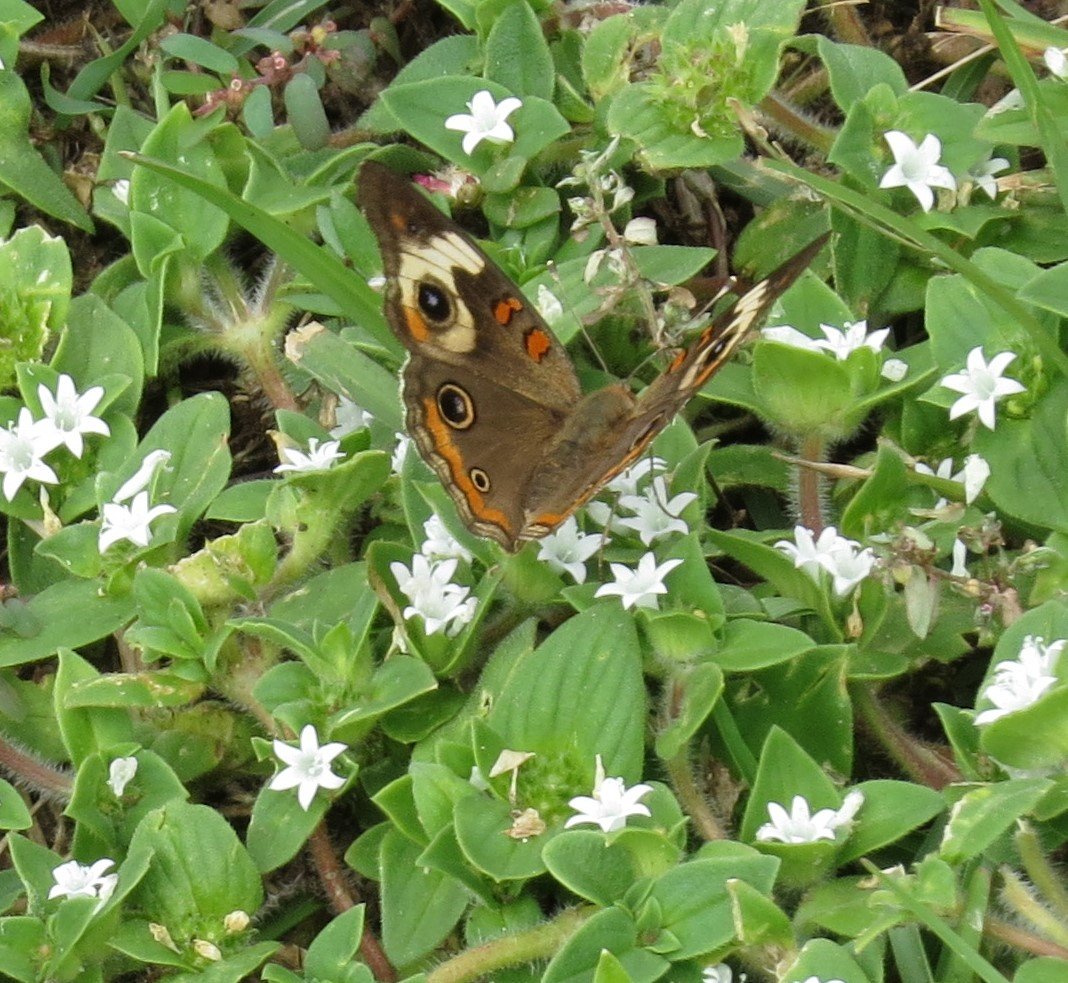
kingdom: Animalia
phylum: Arthropoda
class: Insecta
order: Lepidoptera
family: Nymphalidae
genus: Junonia
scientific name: Junonia coenia
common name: Common Buckeye
